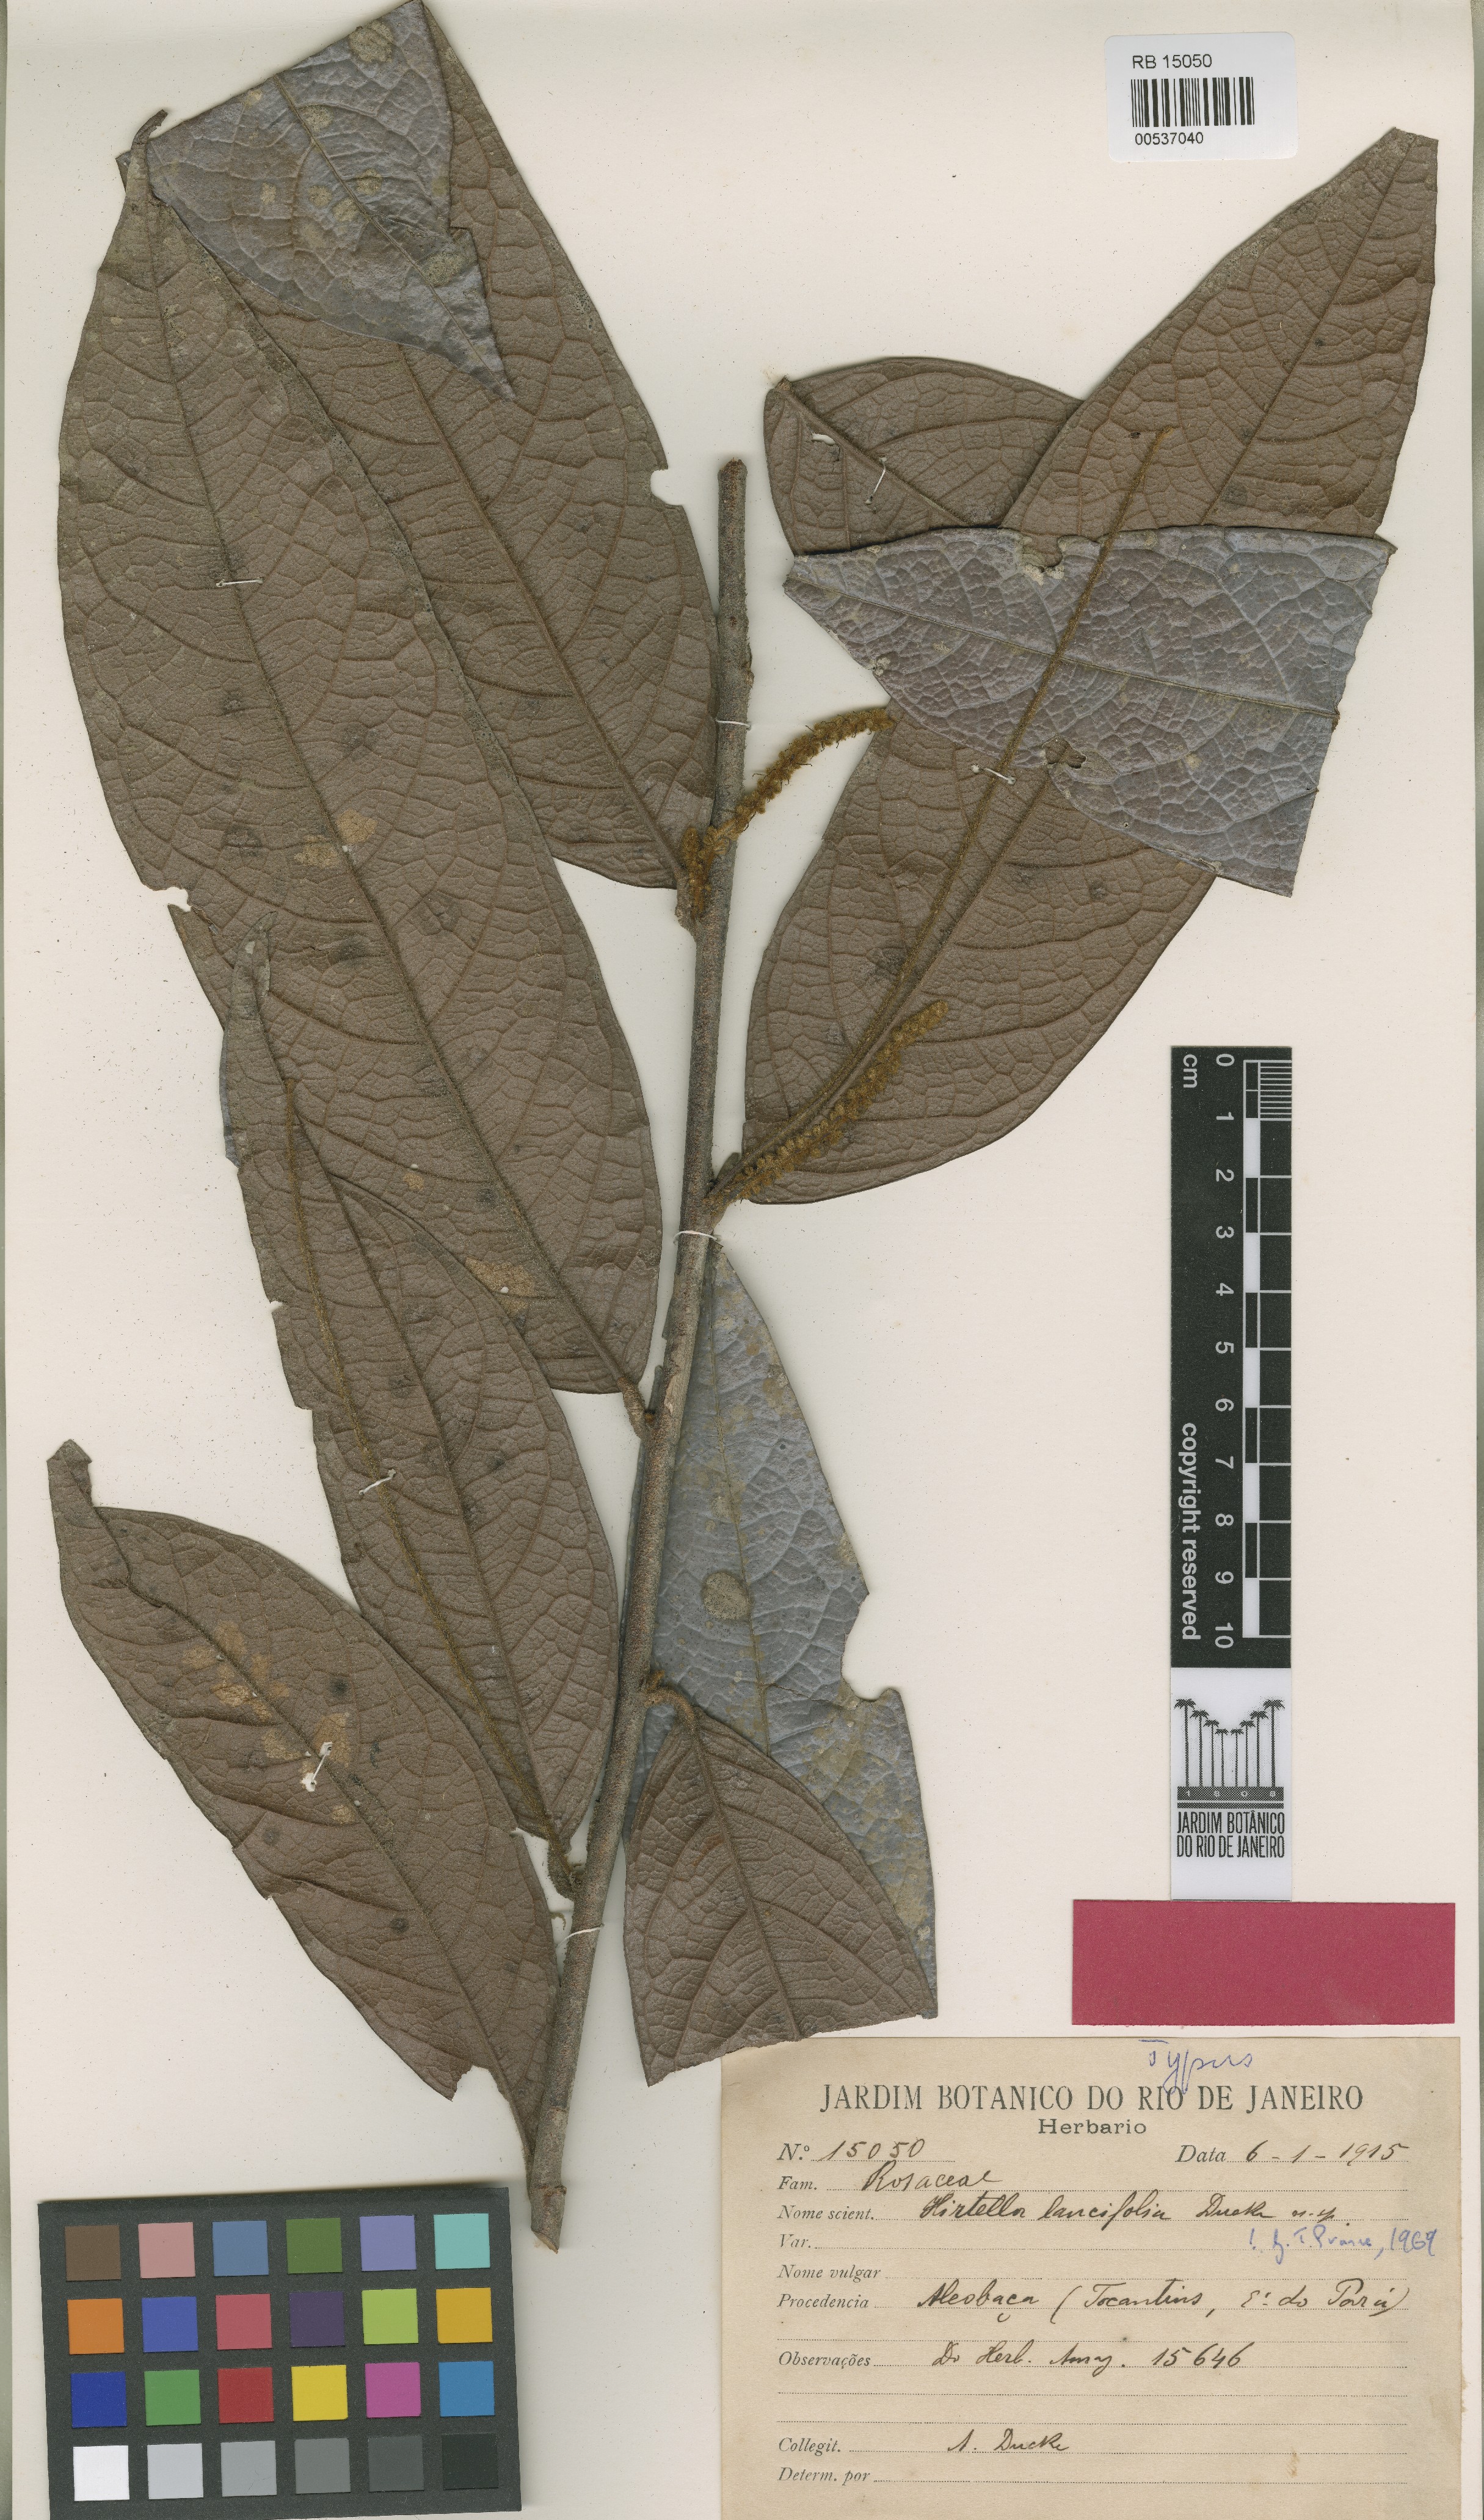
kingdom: Plantae
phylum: Tracheophyta
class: Magnoliopsida
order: Malpighiales
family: Chrysobalanaceae
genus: Hirtella
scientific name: Hirtella lancifolia
